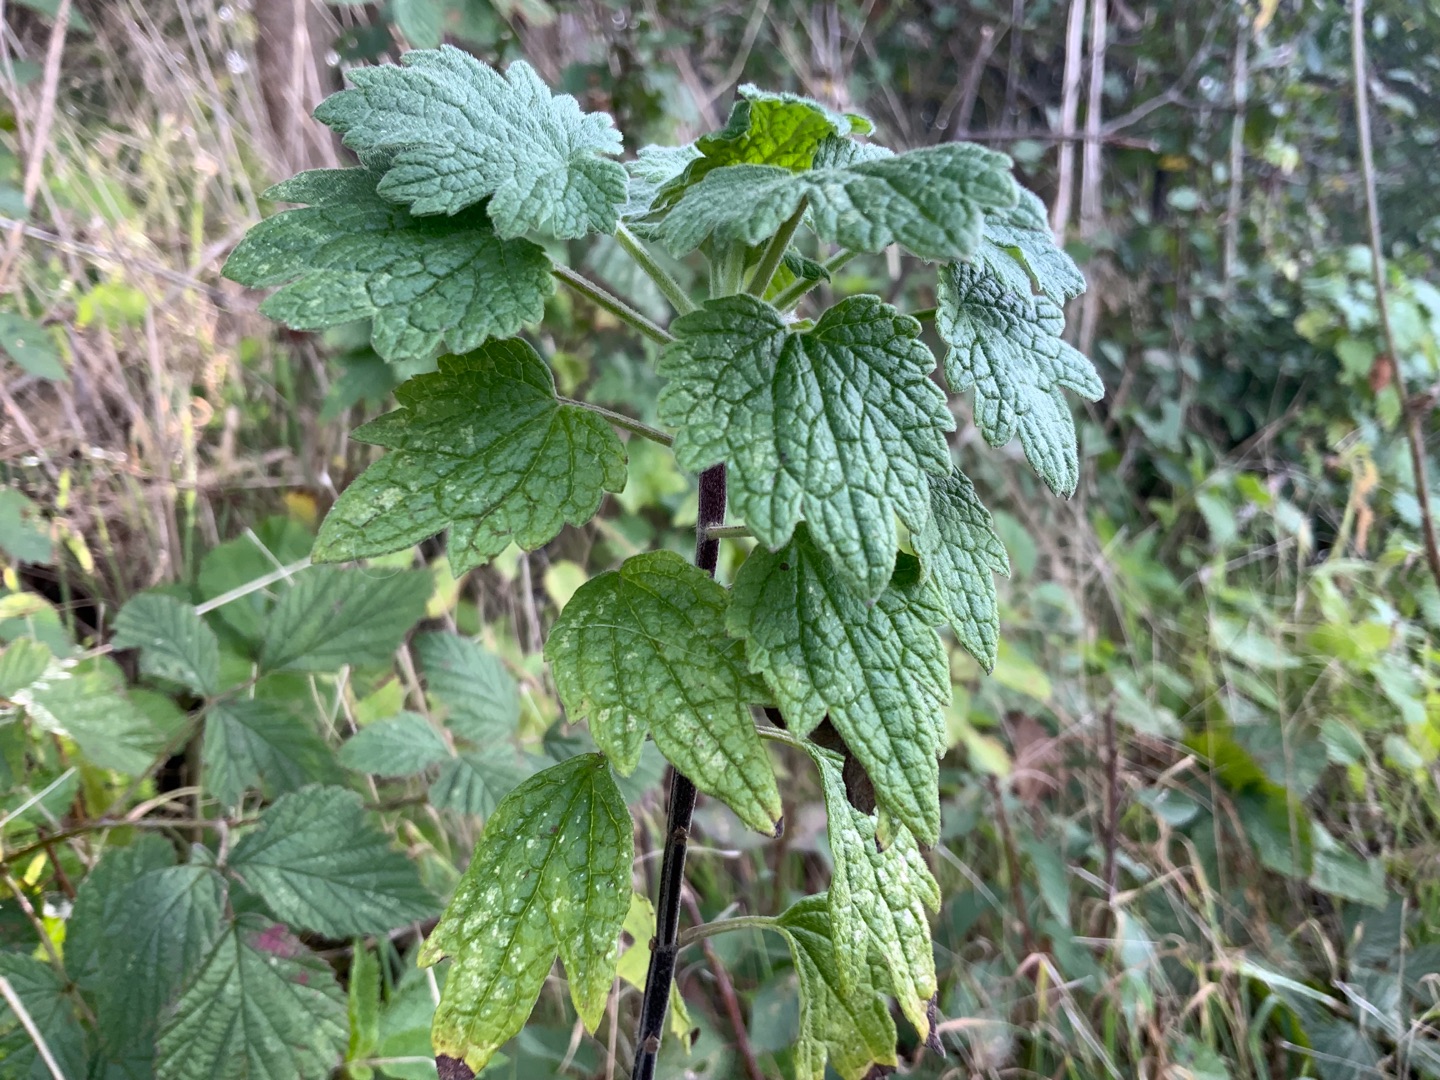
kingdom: Plantae
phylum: Tracheophyta
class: Magnoliopsida
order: Lamiales
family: Lamiaceae
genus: Leonurus
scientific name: Leonurus cardiaca
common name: Hjertespand
